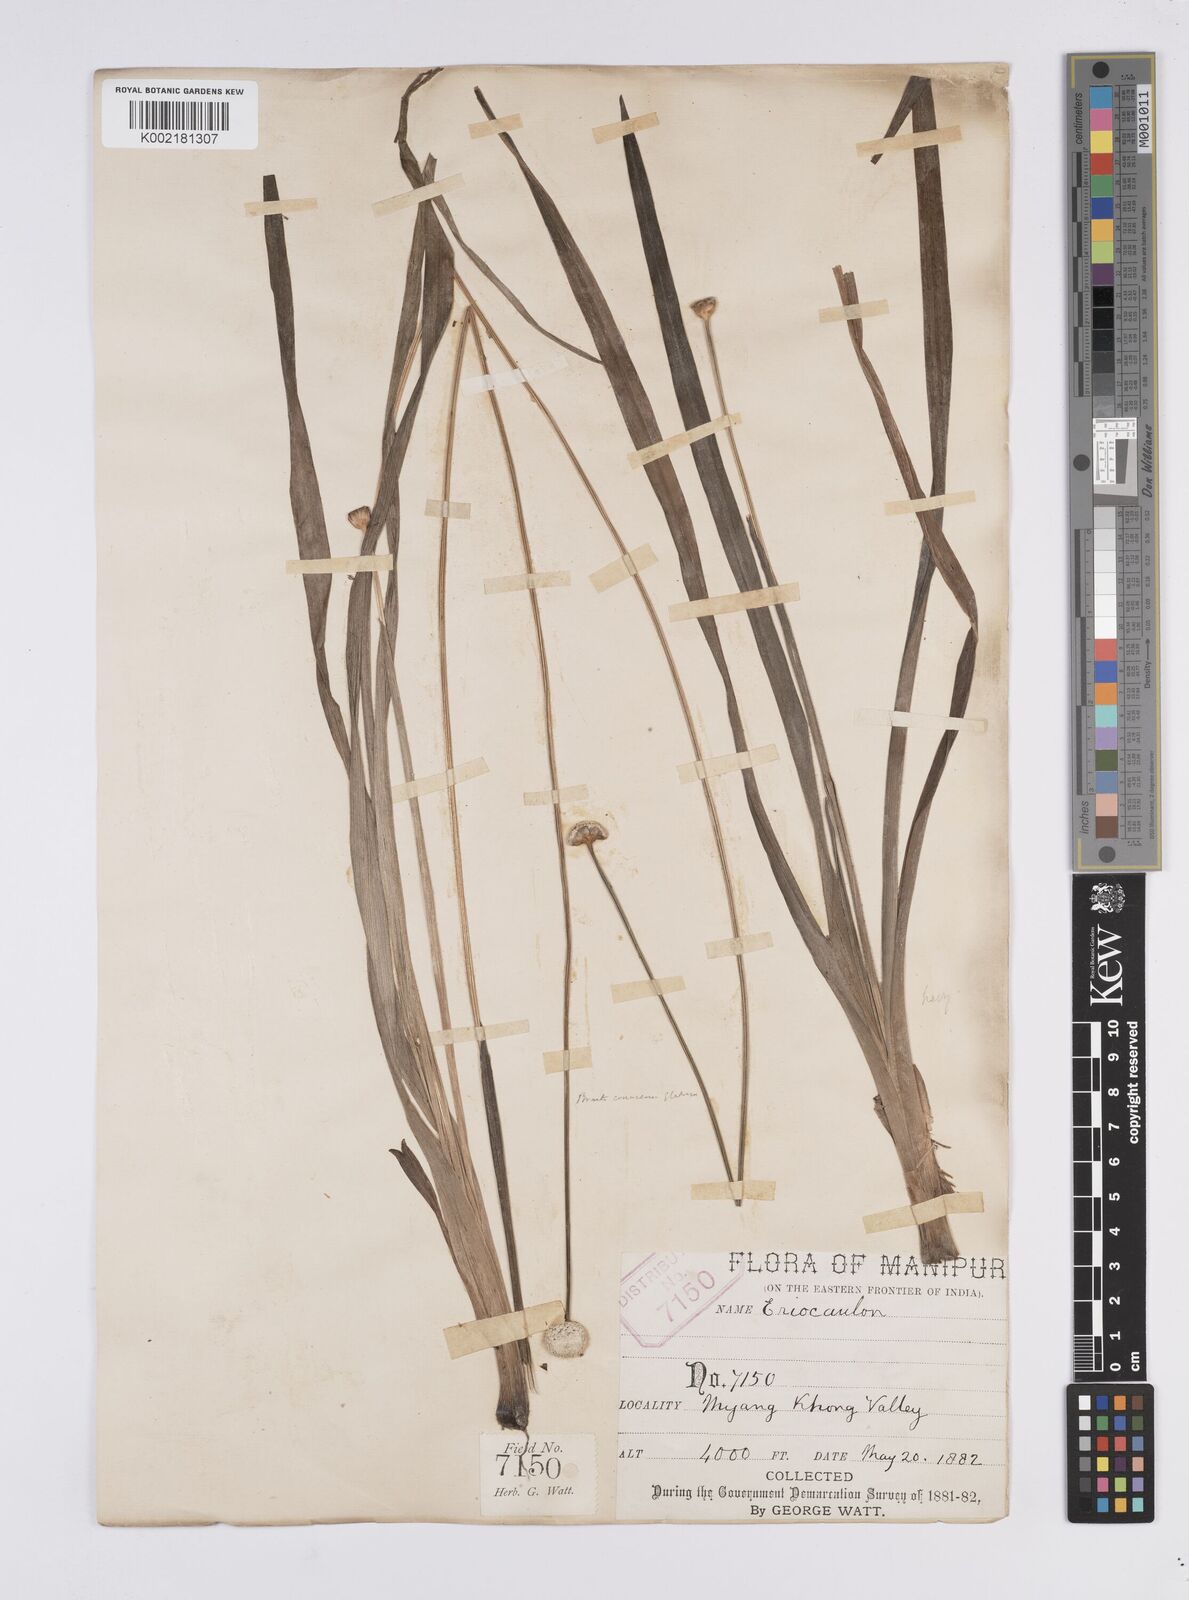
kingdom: Plantae
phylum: Tracheophyta
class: Liliopsida
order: Poales
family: Eriocaulaceae
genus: Eriocaulon
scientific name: Eriocaulon brownianum
